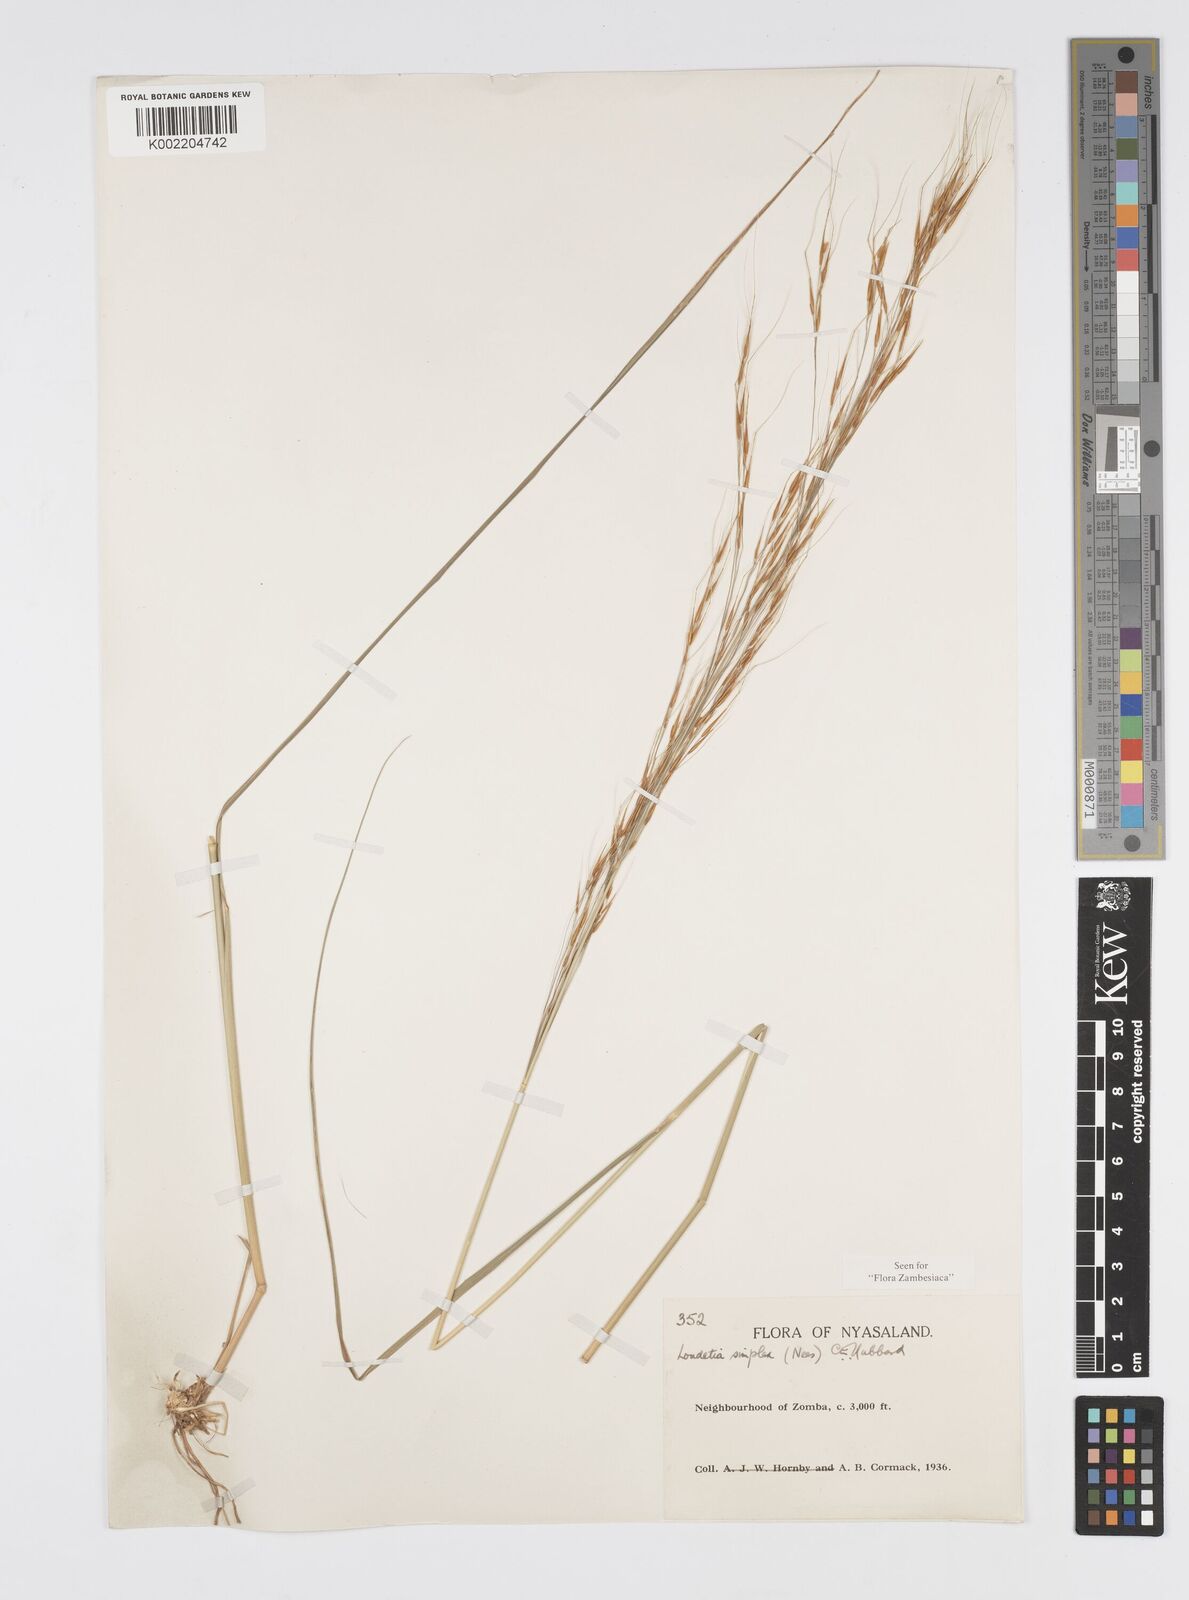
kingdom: Plantae
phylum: Tracheophyta
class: Liliopsida
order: Poales
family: Poaceae
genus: Loudetia
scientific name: Loudetia simplex
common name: Common russet grass
